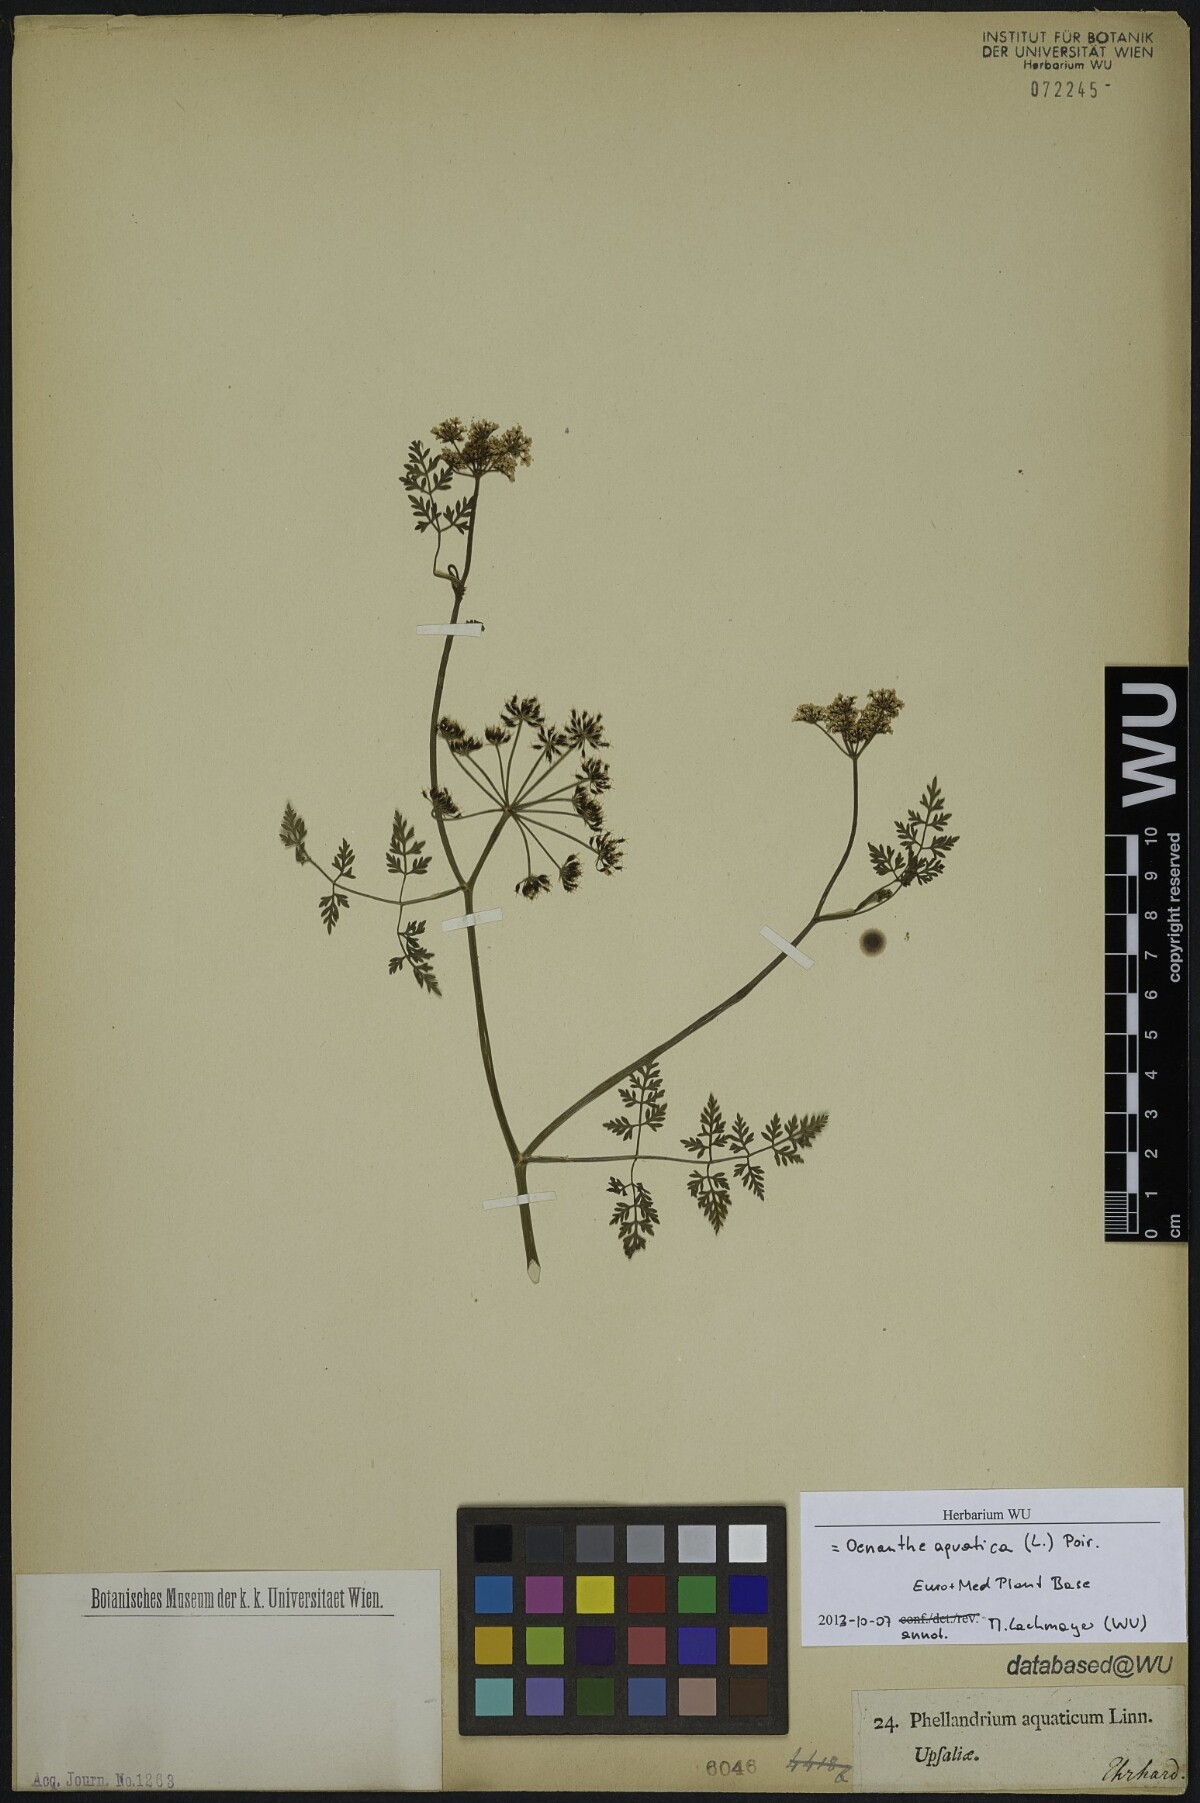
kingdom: Plantae
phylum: Tracheophyta
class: Magnoliopsida
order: Apiales
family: Apiaceae
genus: Oenanthe
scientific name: Oenanthe aquatica
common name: Fine-leaved water-dropwort
